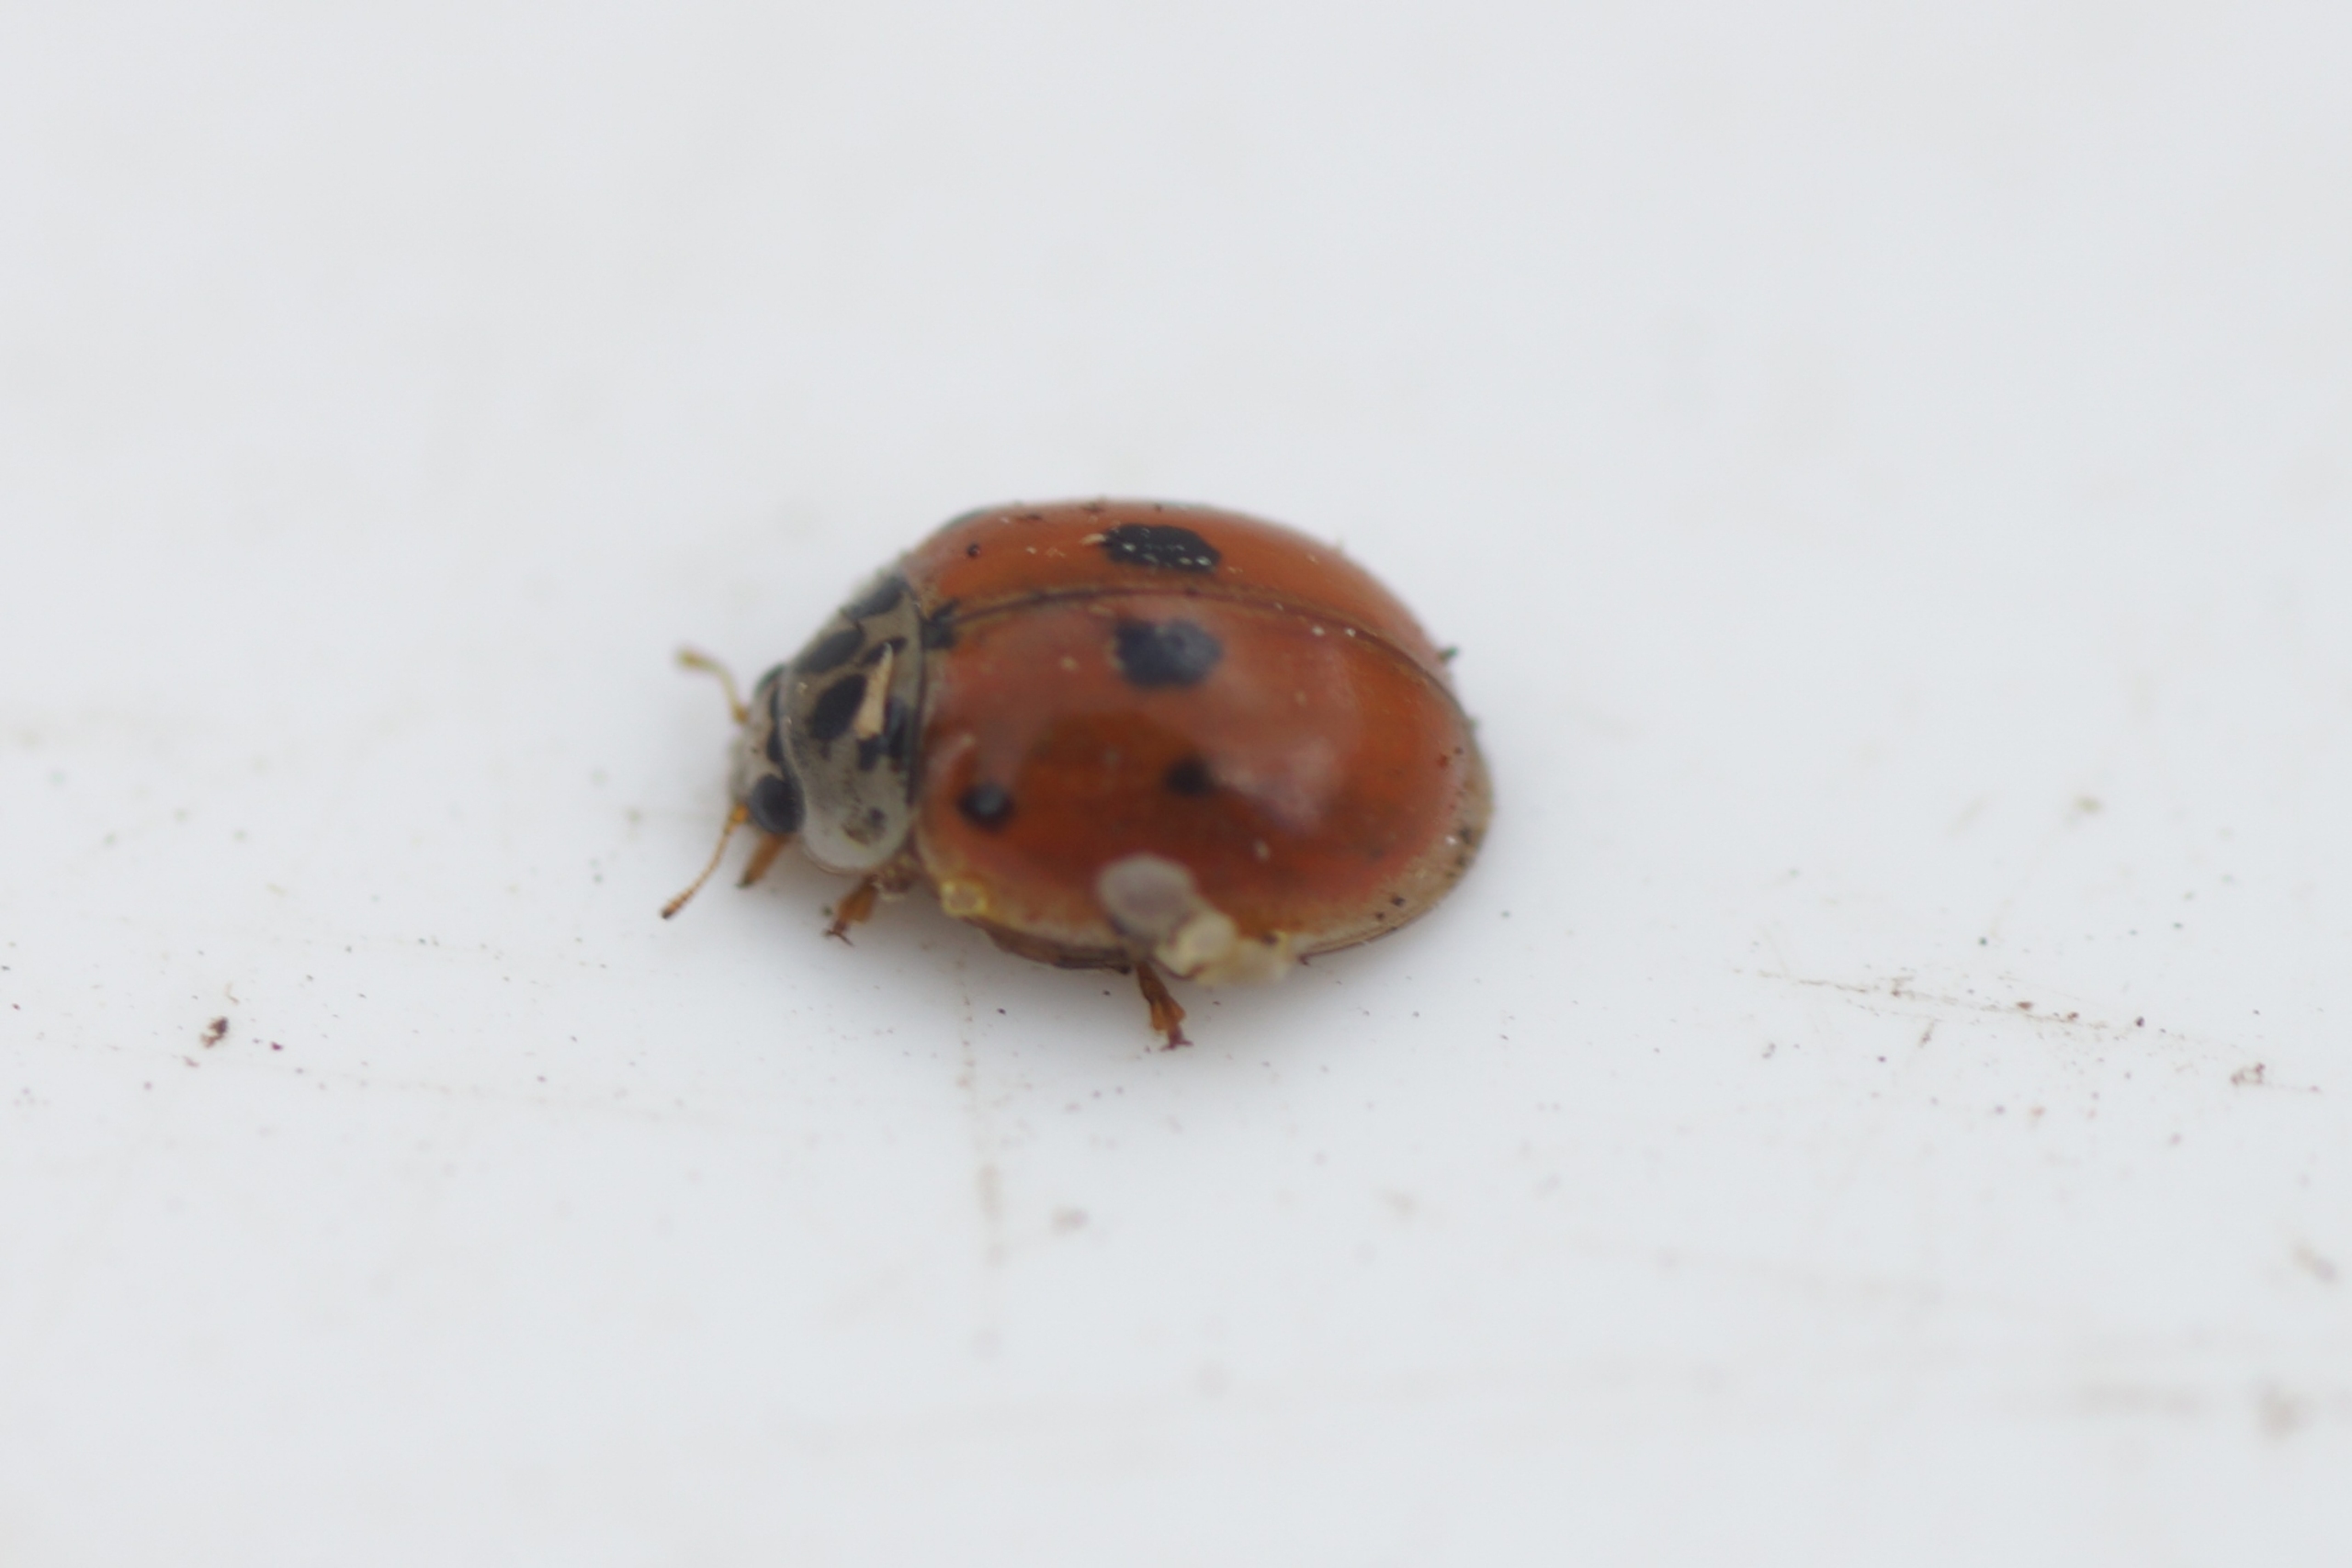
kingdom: Animalia
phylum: Arthropoda
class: Insecta
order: Coleoptera
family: Coccinellidae
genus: Harmonia
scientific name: Harmonia axyridis
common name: Harlekinmariehøne
